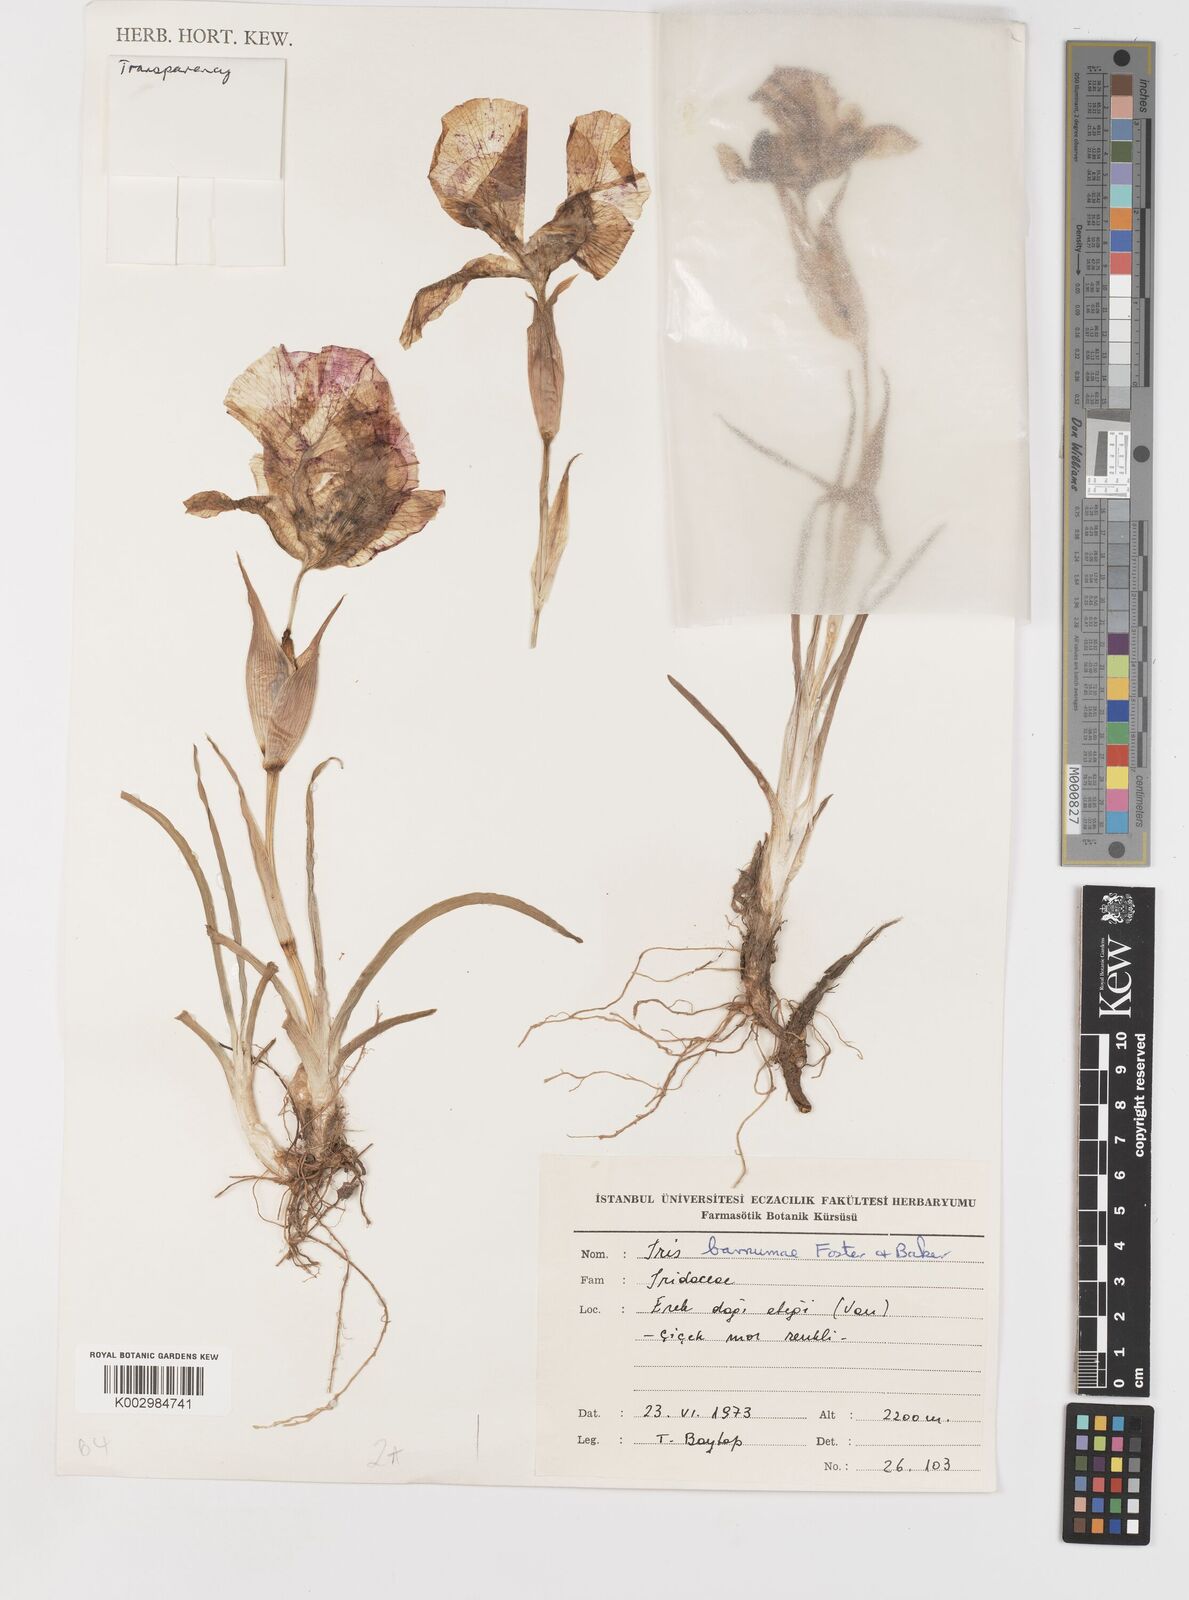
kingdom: Plantae
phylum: Tracheophyta
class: Liliopsida
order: Asparagales
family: Iridaceae
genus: Iris
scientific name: Iris barnumiae
